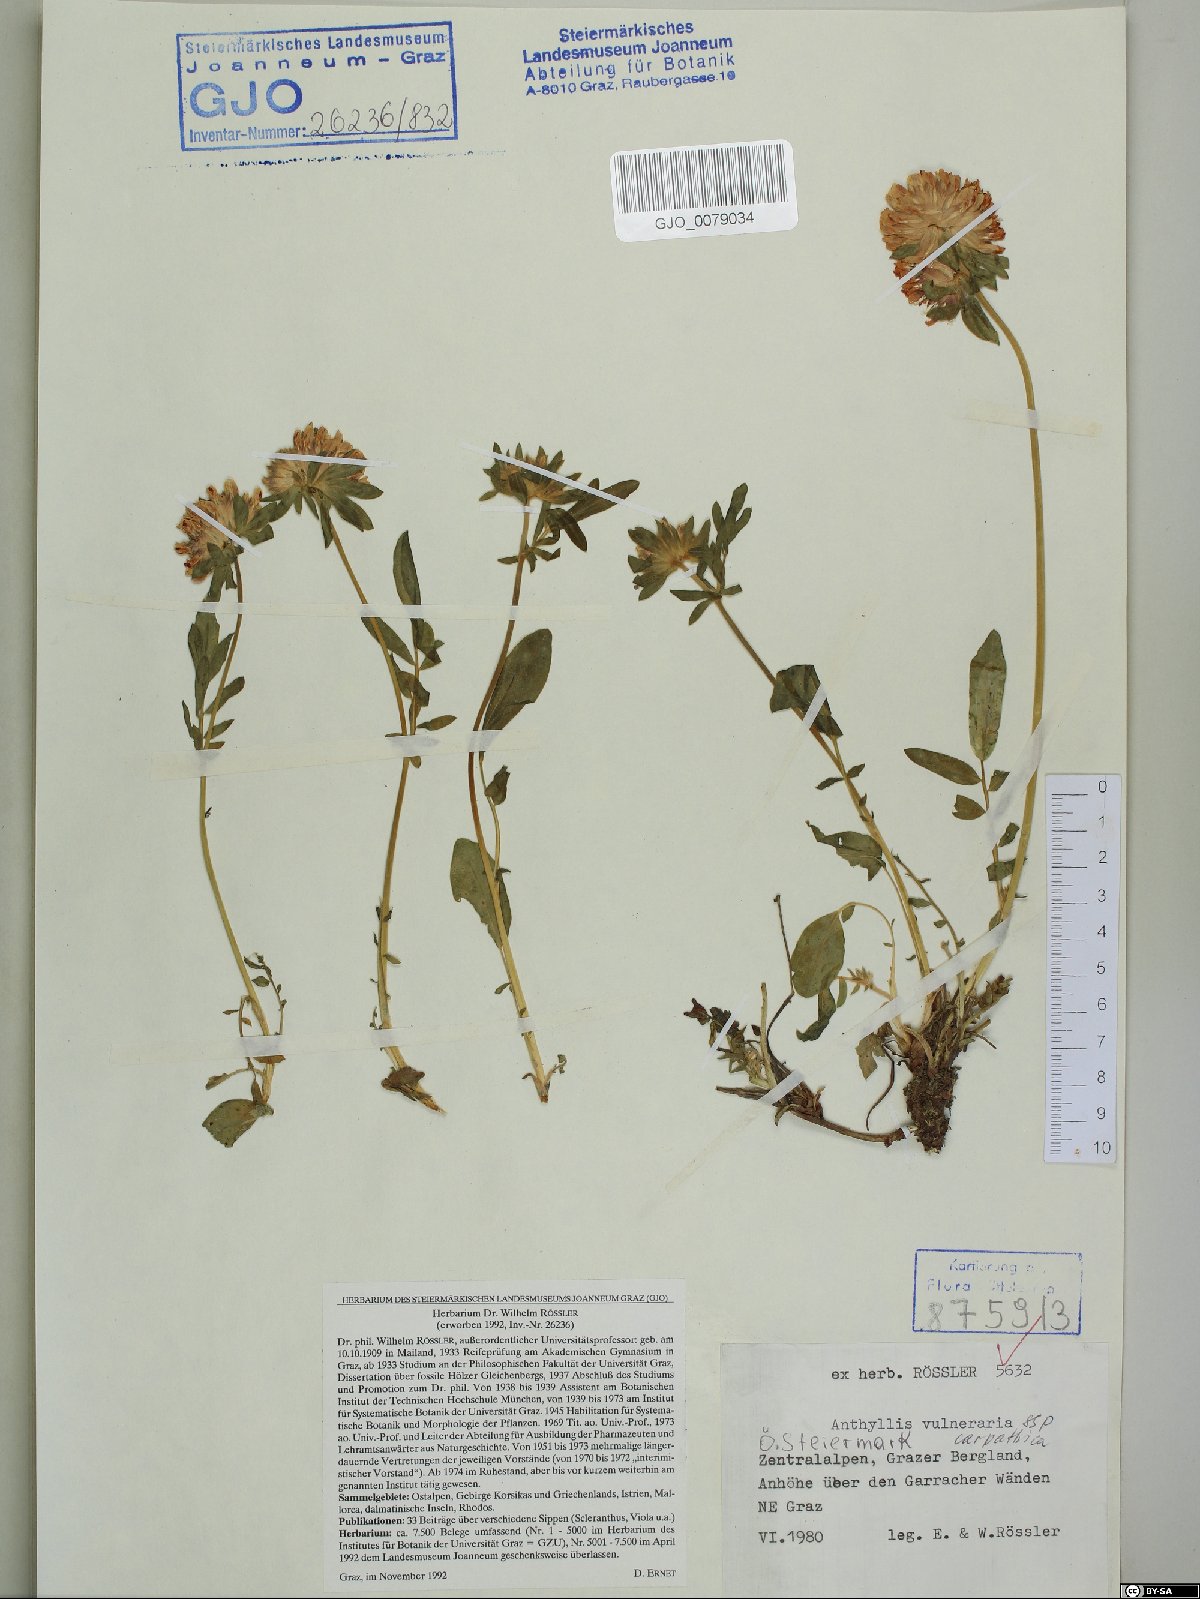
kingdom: Plantae
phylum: Tracheophyta
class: Magnoliopsida
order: Fabales
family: Fabaceae
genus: Anthyllis
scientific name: Anthyllis vulneraria
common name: Kidney vetch
